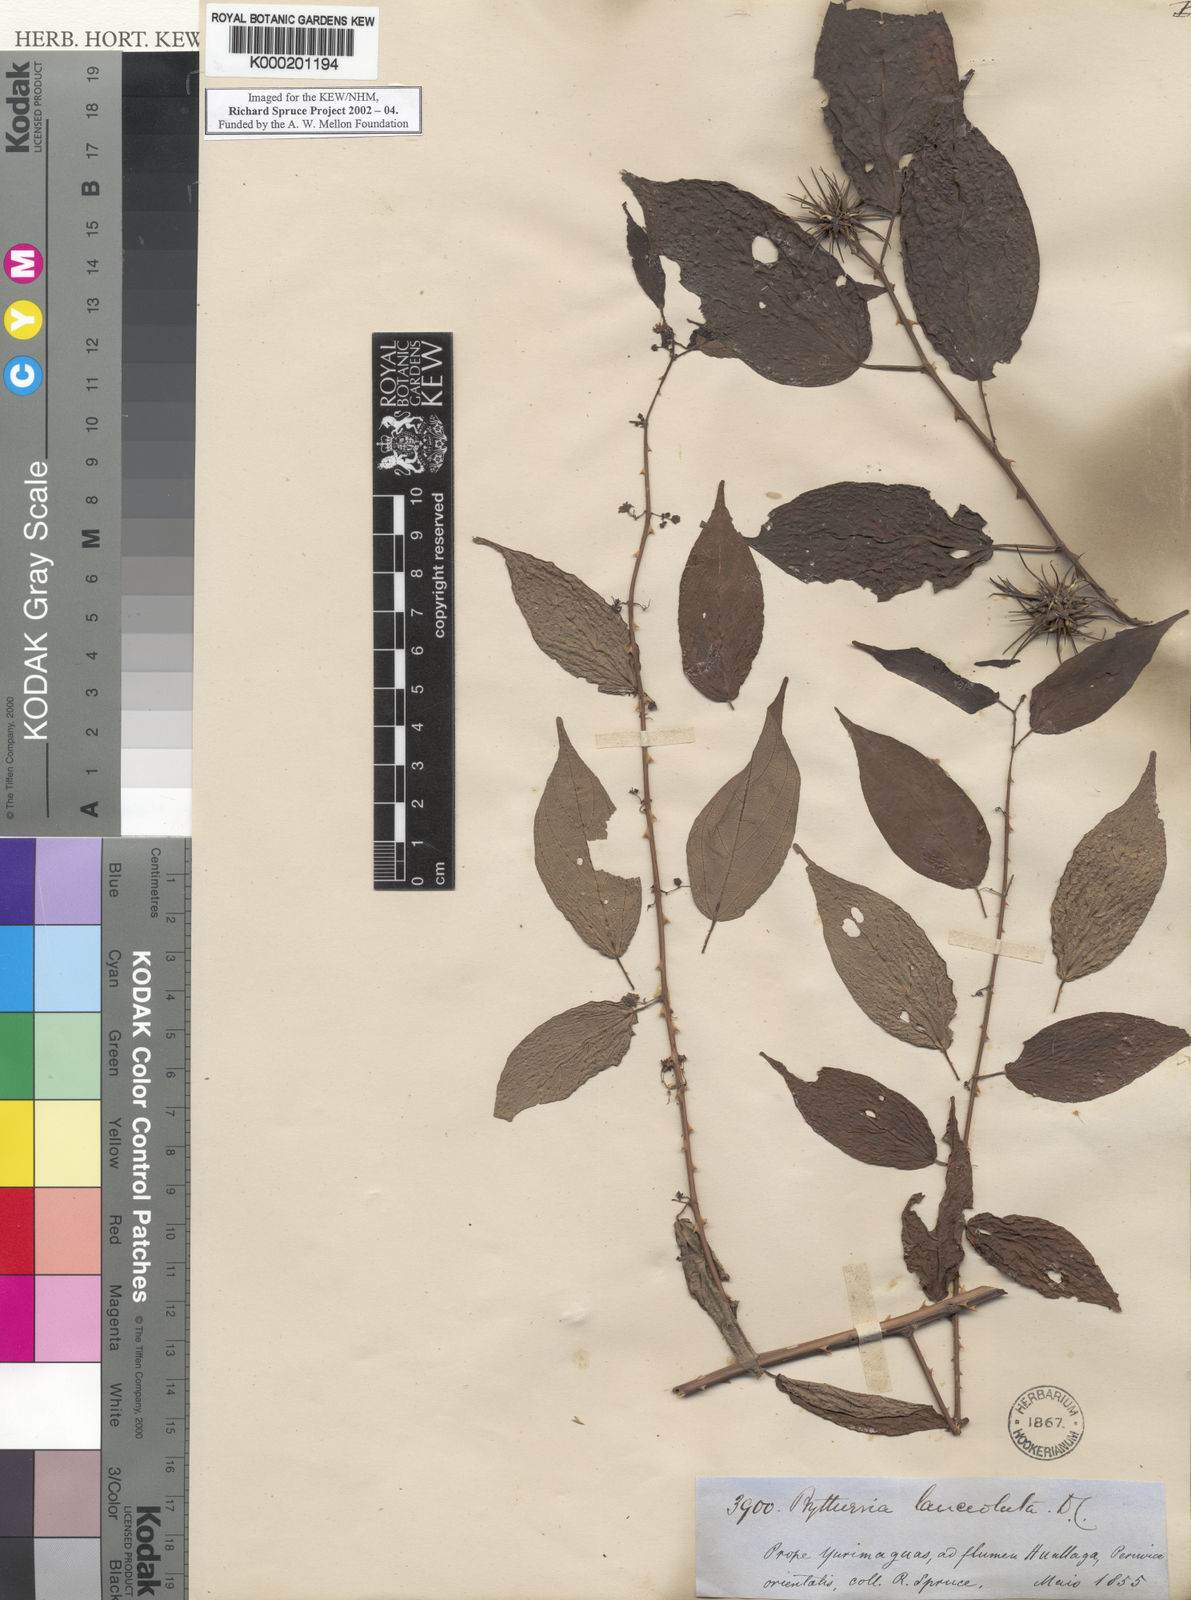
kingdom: Plantae
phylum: Tracheophyta
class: Magnoliopsida
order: Malvales
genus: Buettneria
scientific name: Buettneria
